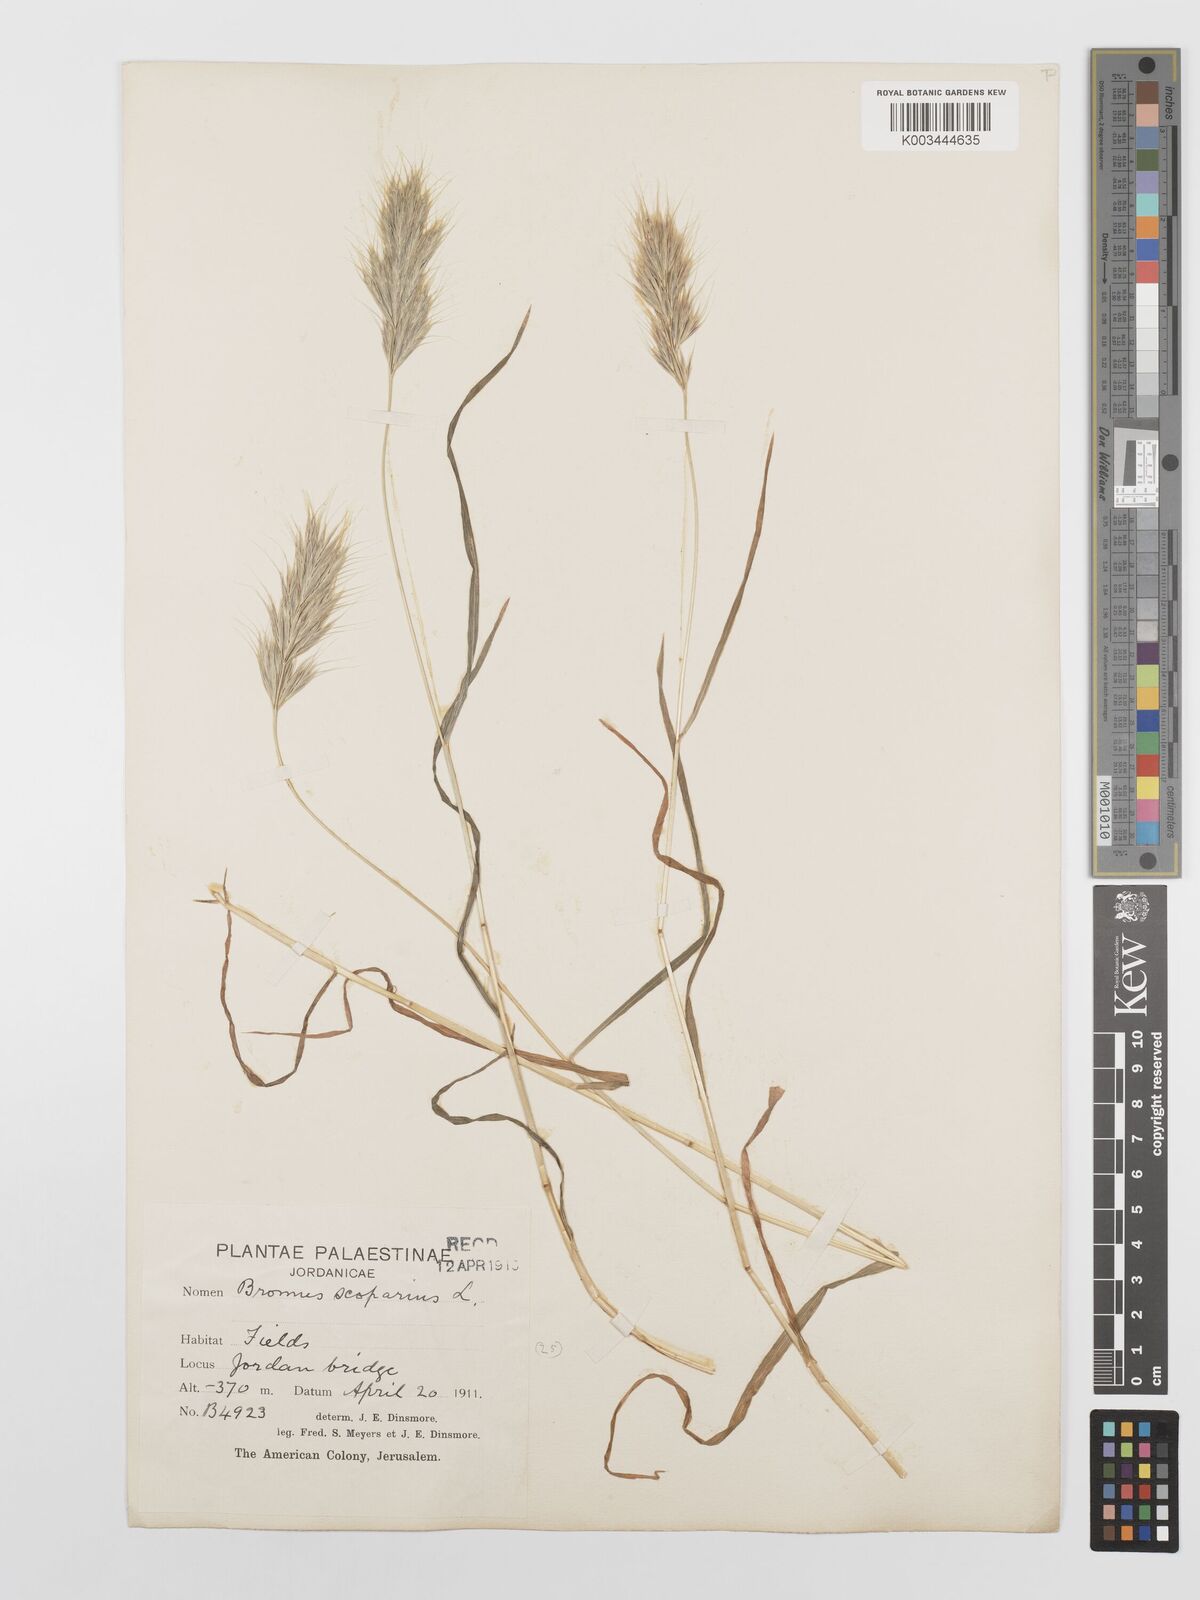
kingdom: Plantae
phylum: Tracheophyta
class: Liliopsida
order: Poales
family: Poaceae
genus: Bromus
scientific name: Bromus scoparius
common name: Broom brome
